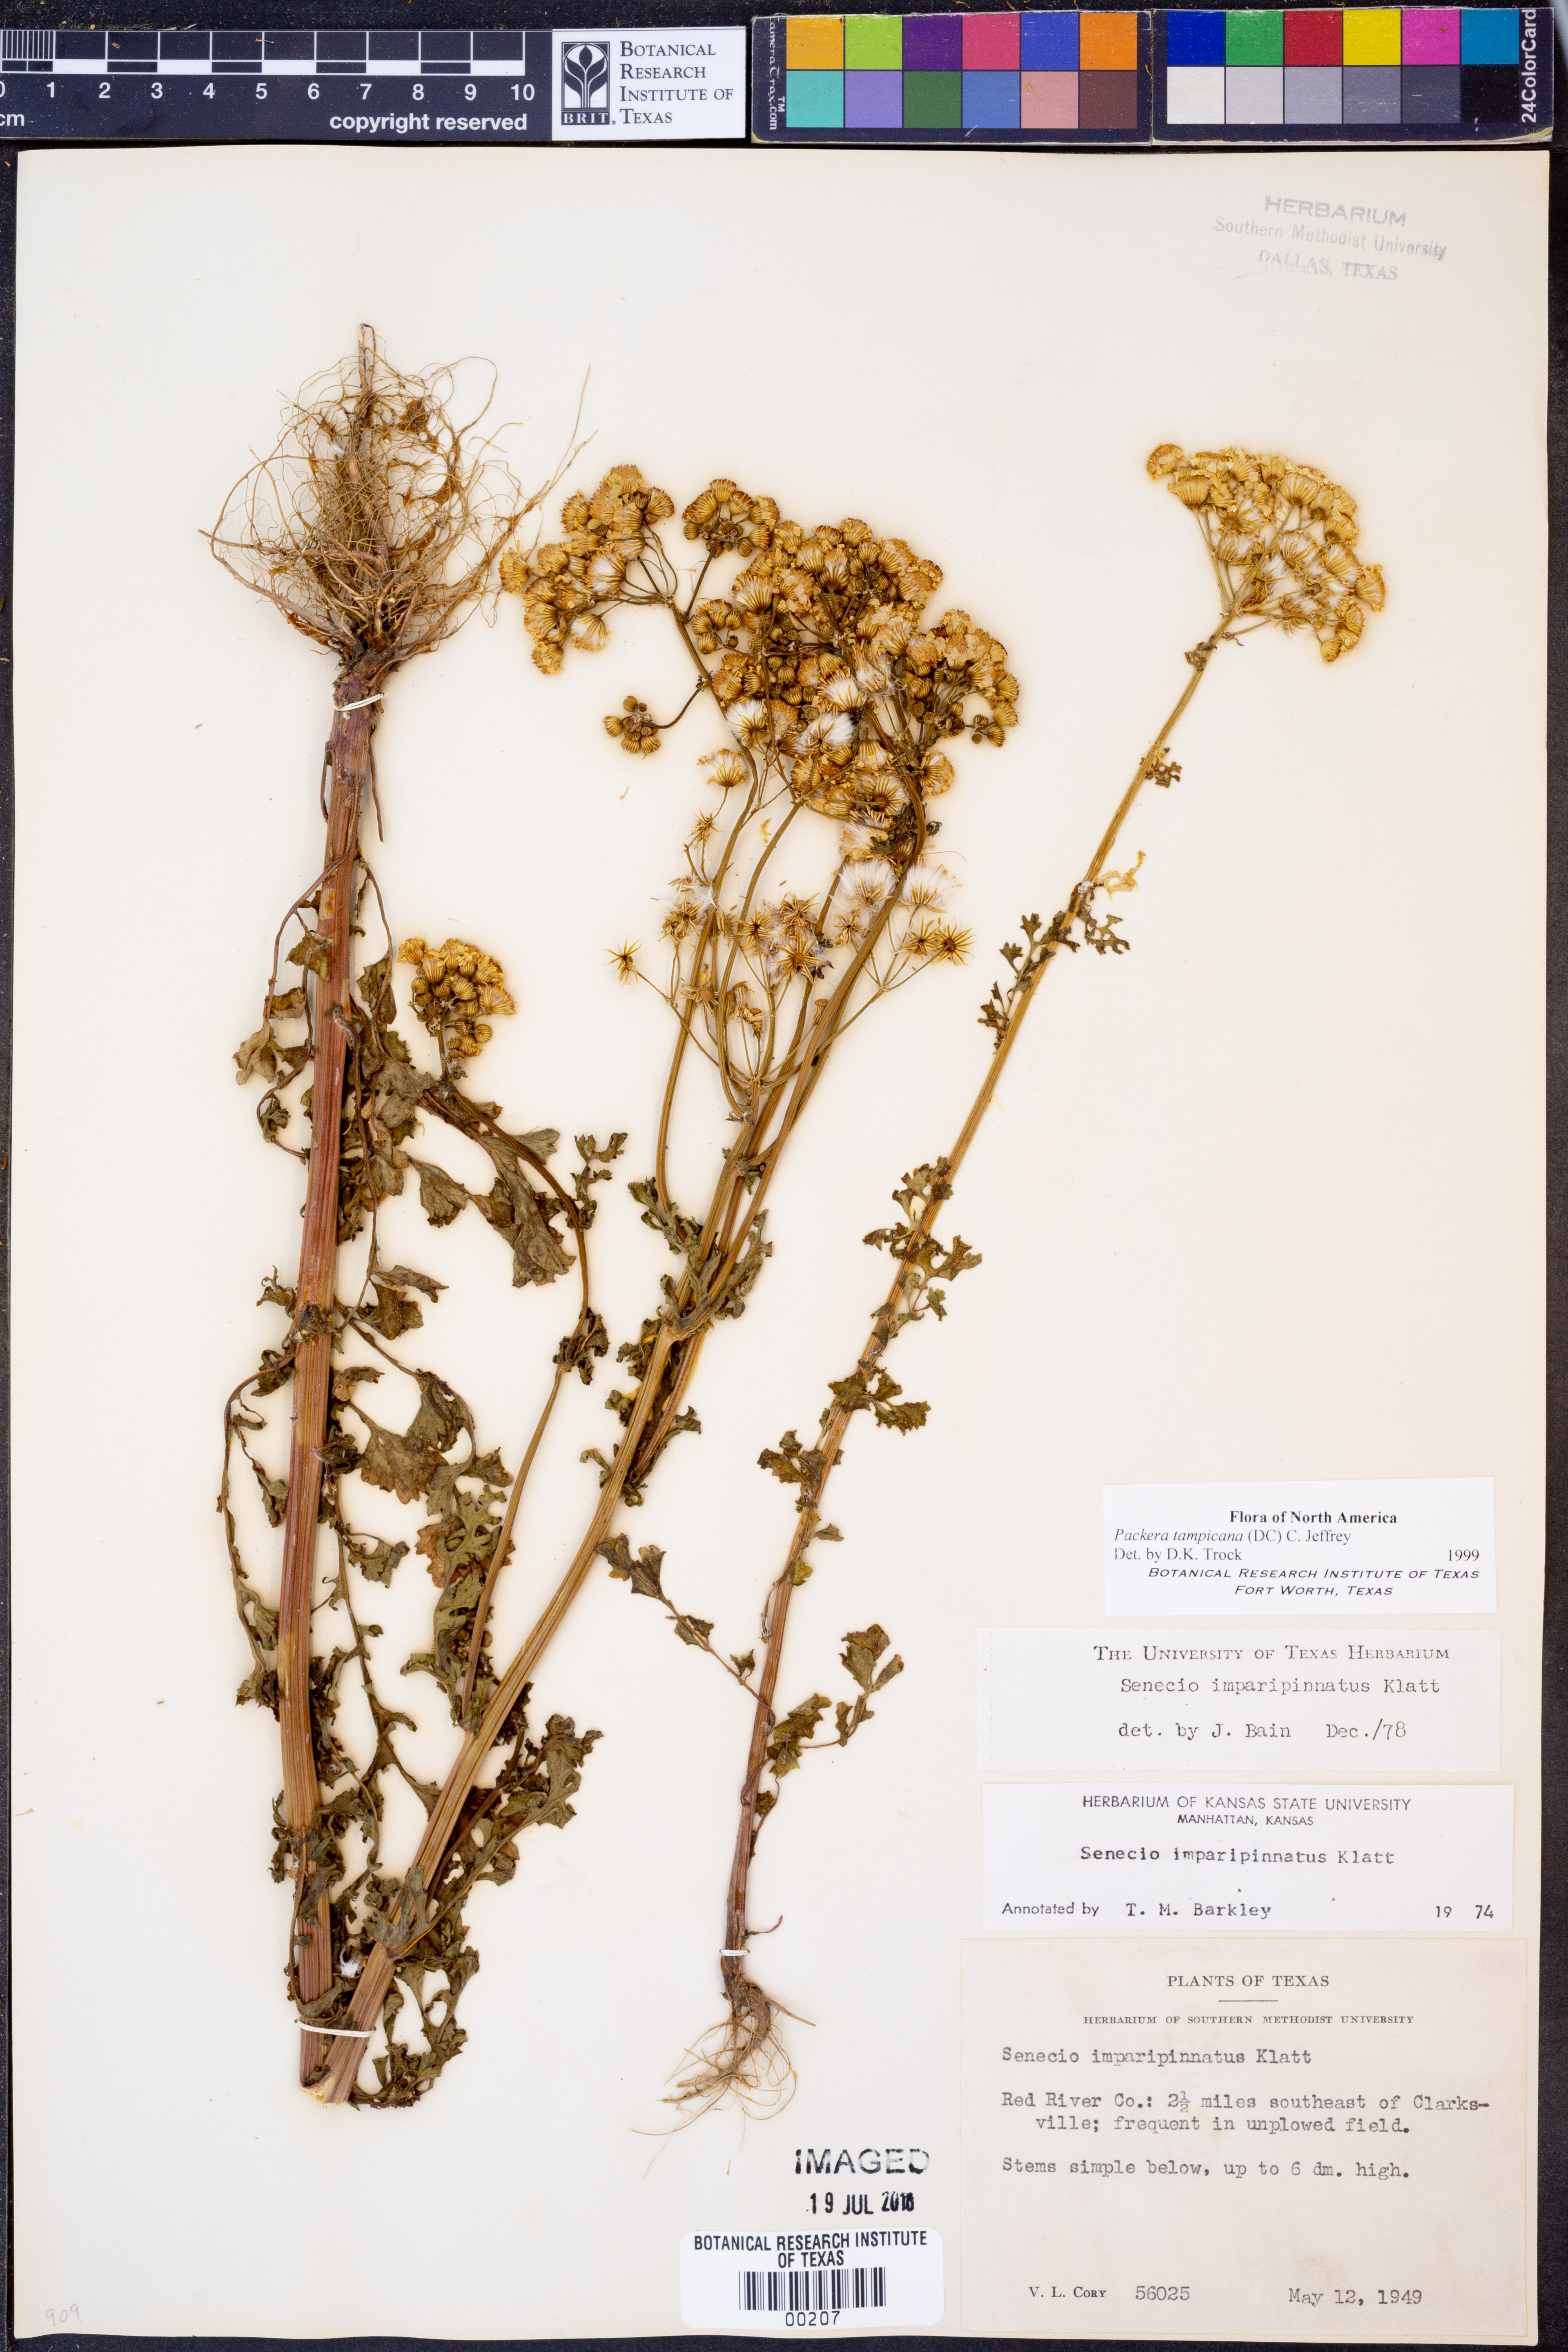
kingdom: Plantae
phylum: Tracheophyta
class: Magnoliopsida
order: Asterales
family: Asteraceae
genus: Packera
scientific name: Packera tampicana
